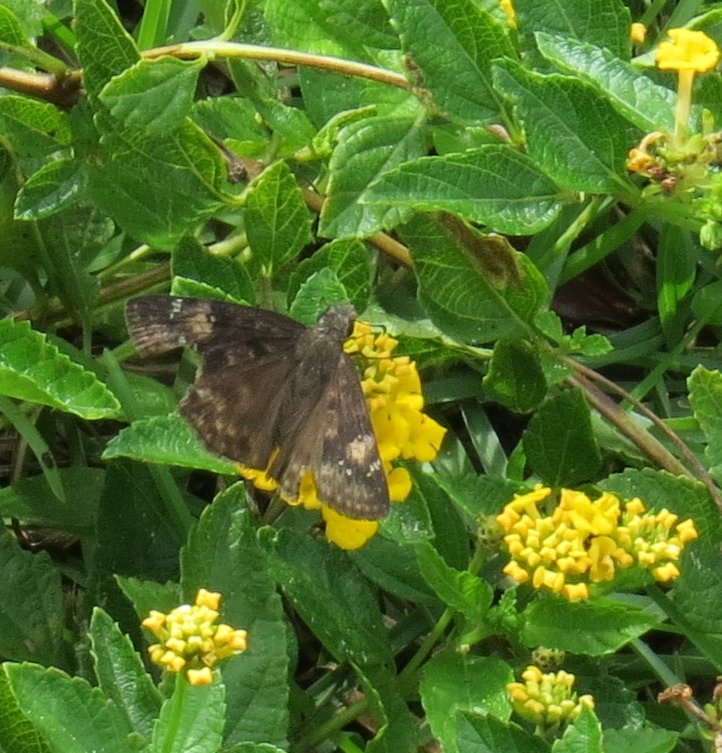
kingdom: Animalia
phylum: Arthropoda
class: Insecta
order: Lepidoptera
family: Hesperiidae
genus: Erynnis
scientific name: Erynnis zarucco
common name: Zarucco Duskywing
